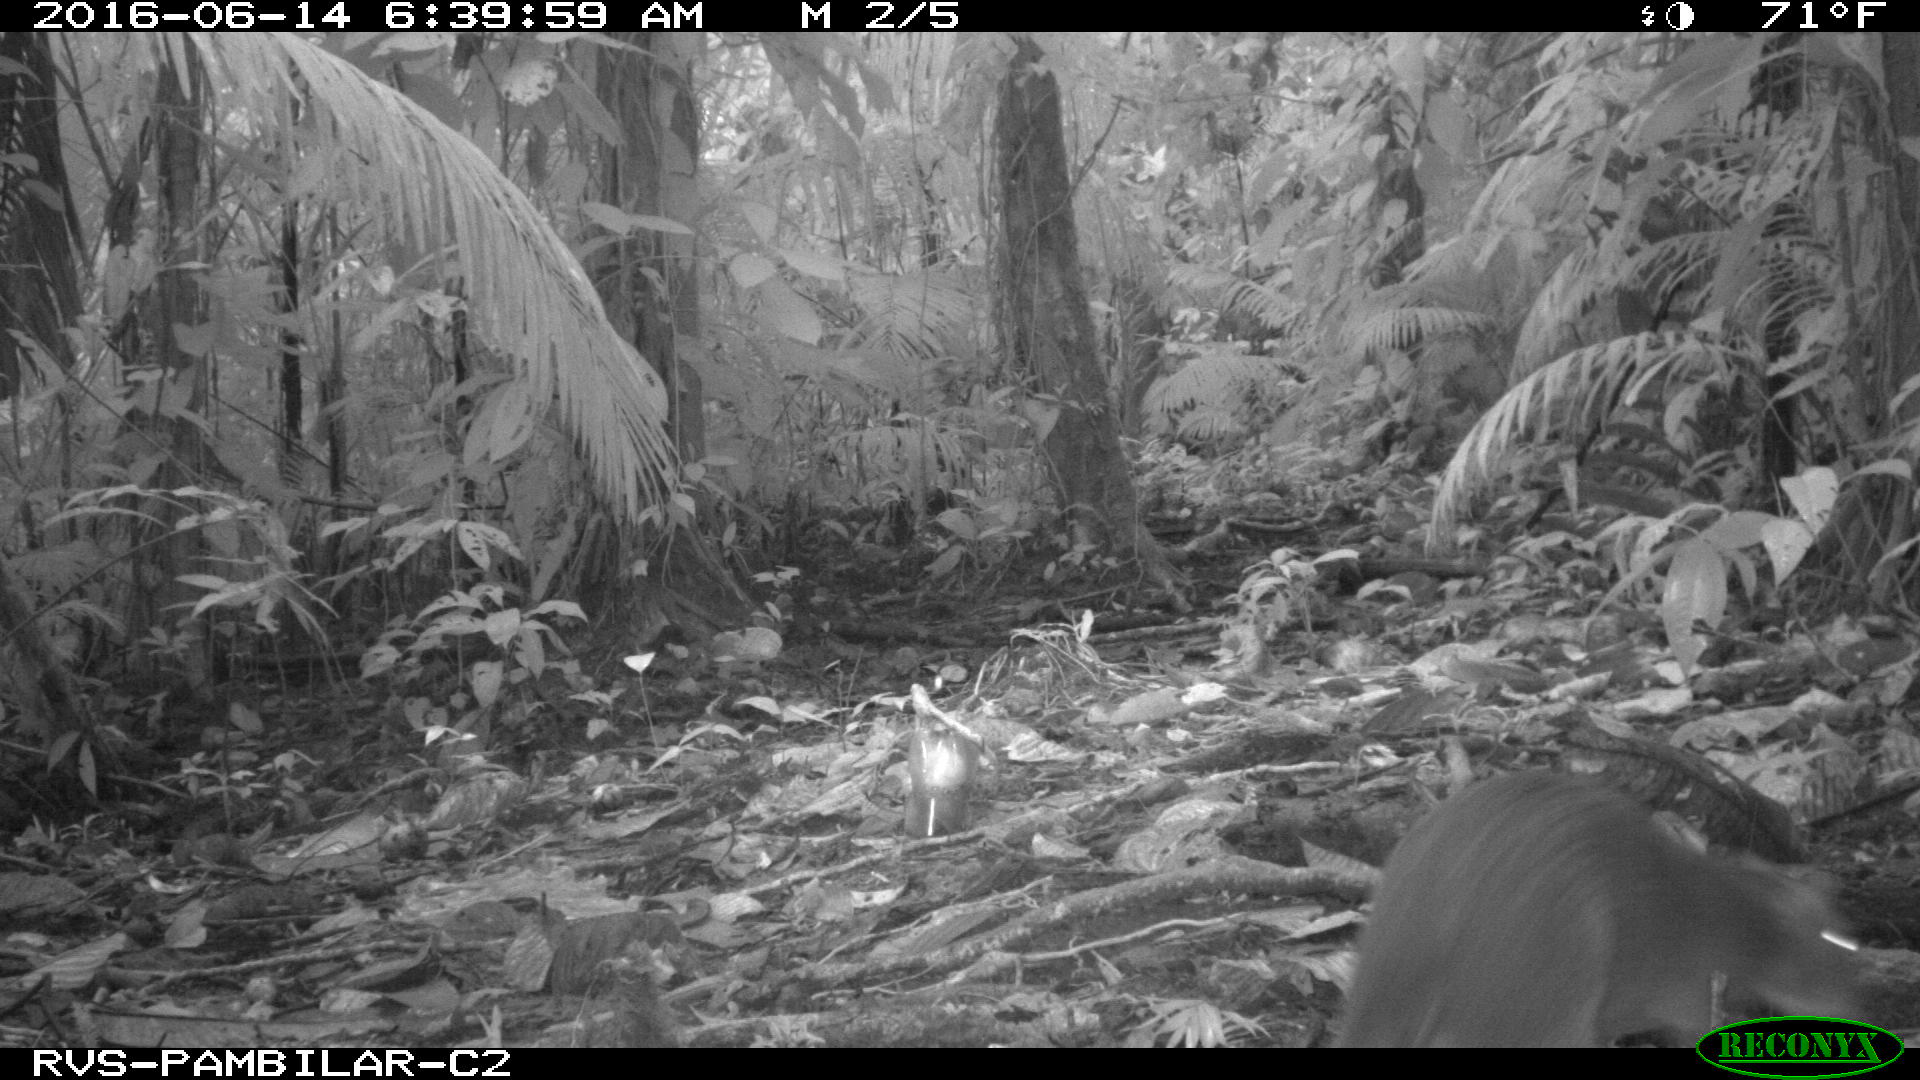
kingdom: Animalia
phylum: Chordata
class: Mammalia
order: Rodentia
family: Dasyproctidae
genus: Dasyprocta
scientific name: Dasyprocta punctata
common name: Central american agouti
